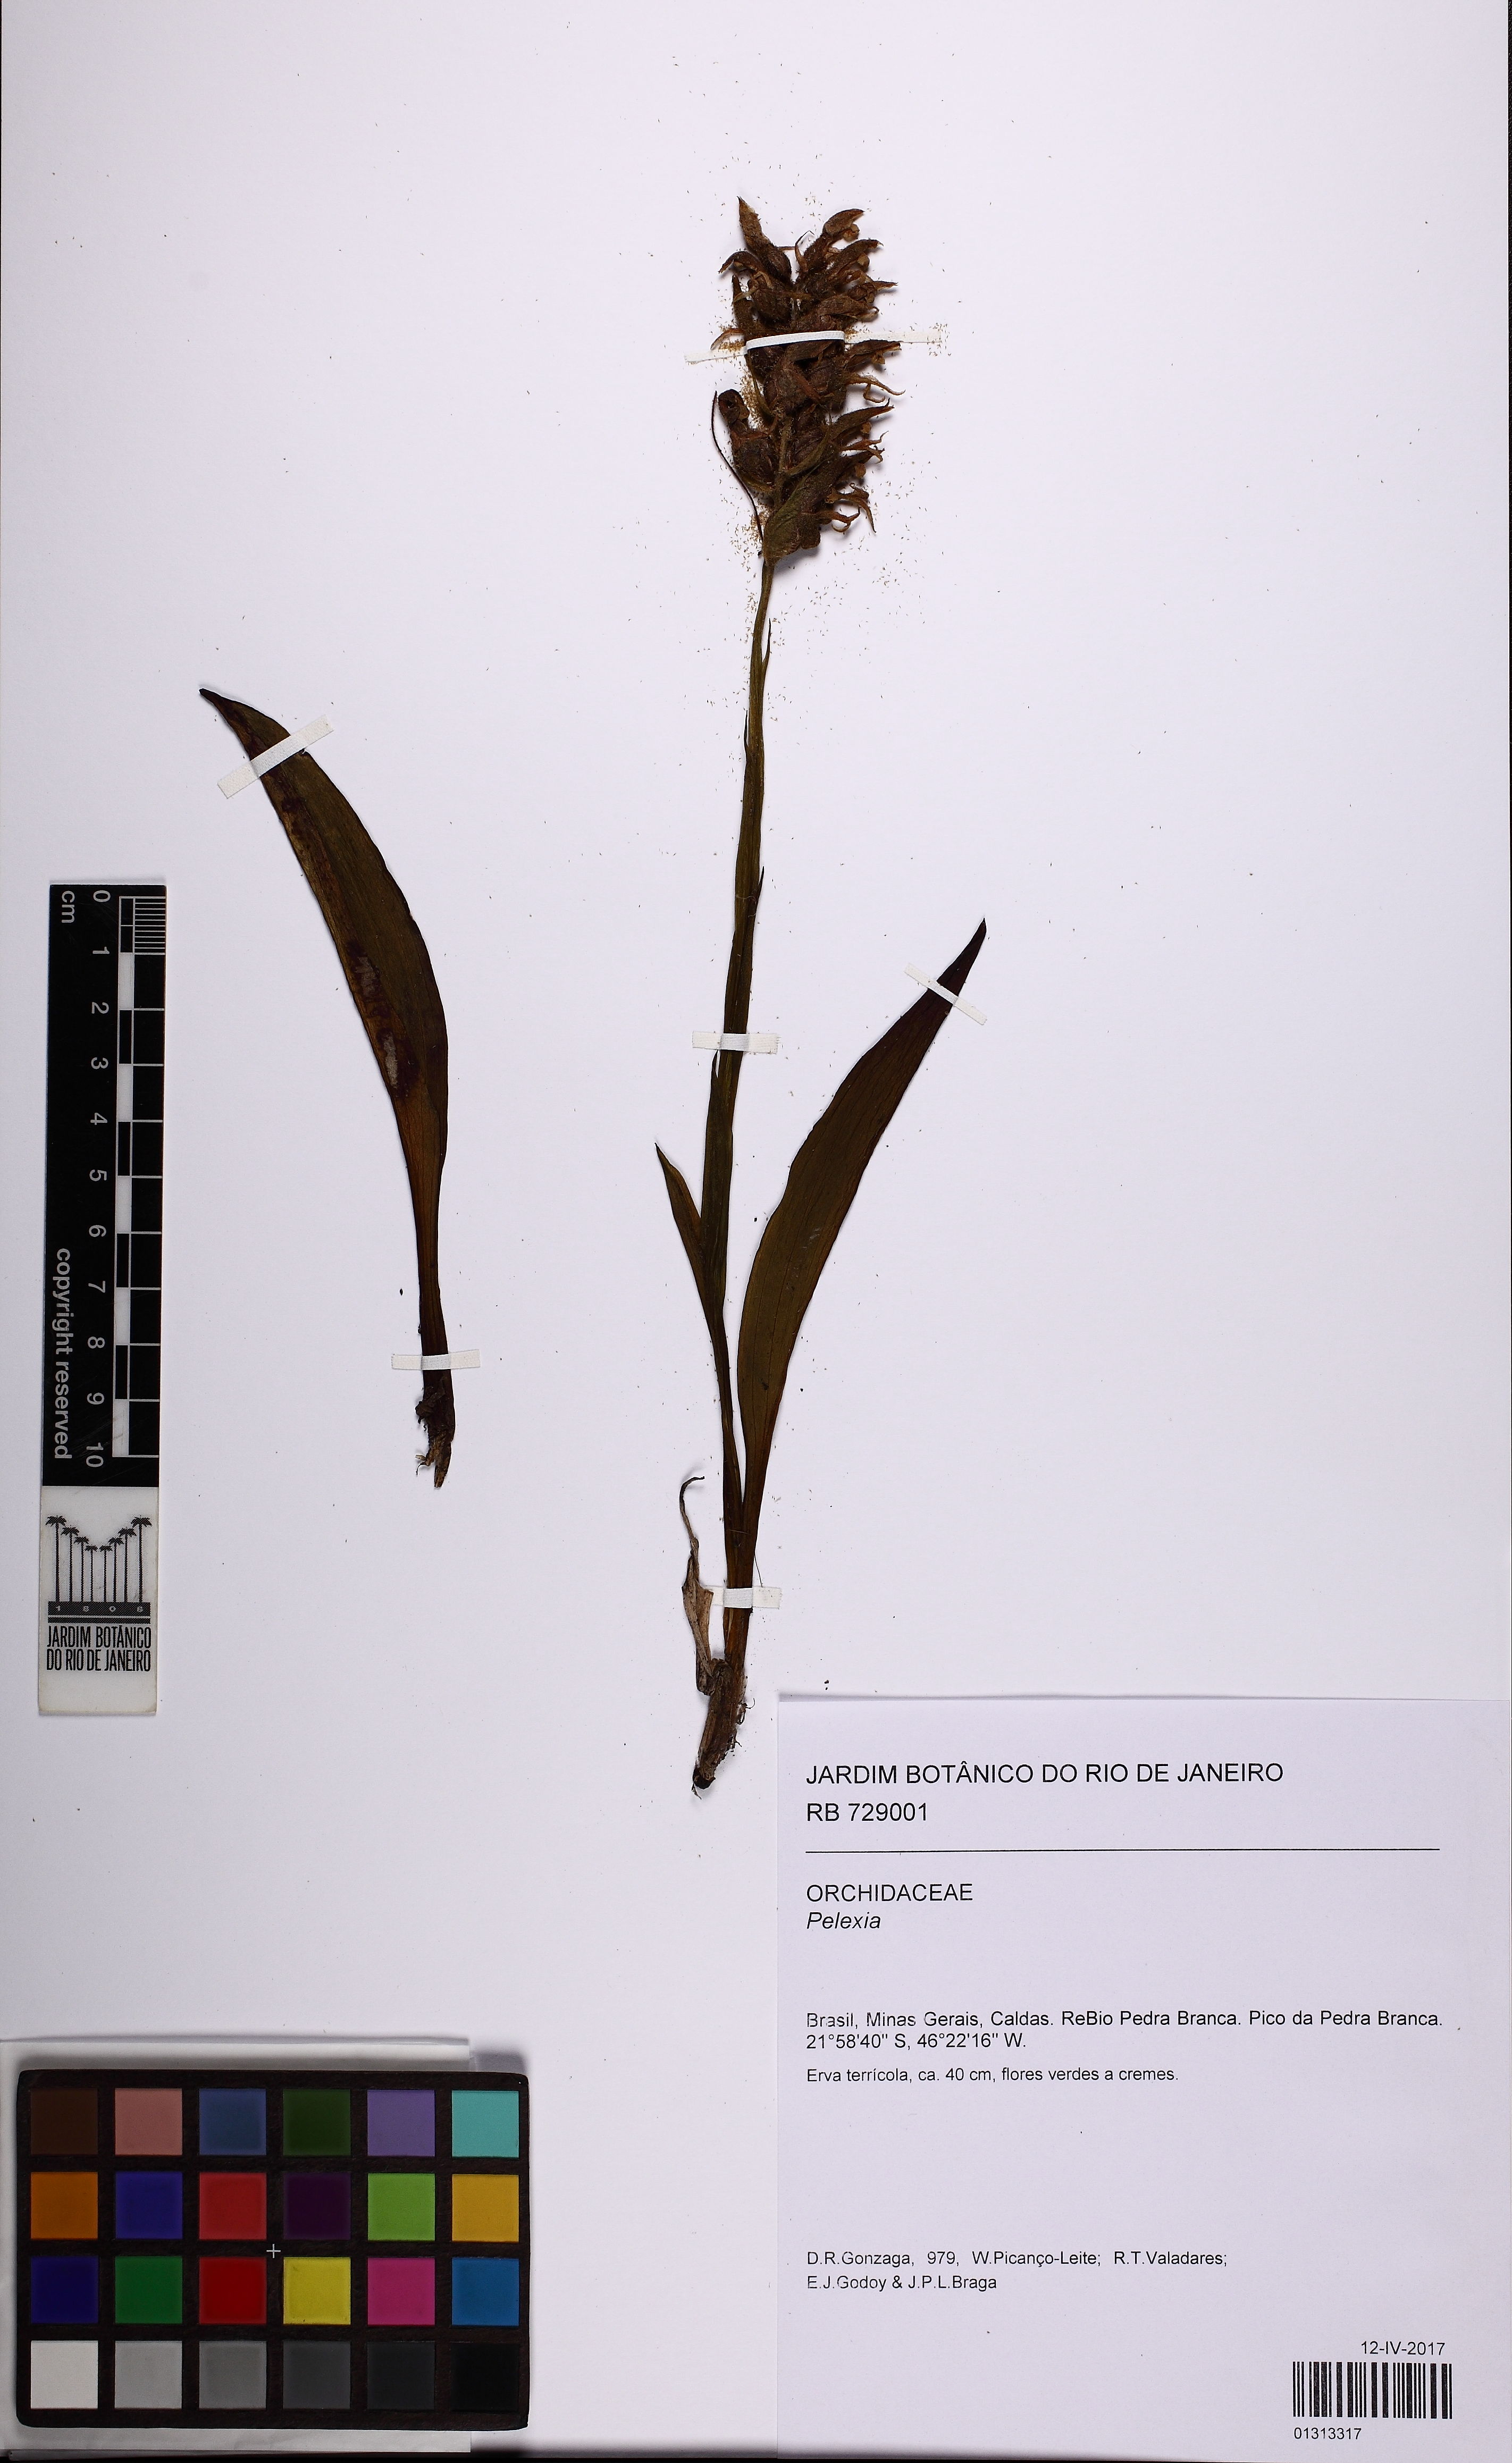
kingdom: Plantae
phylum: Tracheophyta
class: Liliopsida
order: Asparagales
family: Orchidaceae
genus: Pelexia
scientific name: Pelexia
